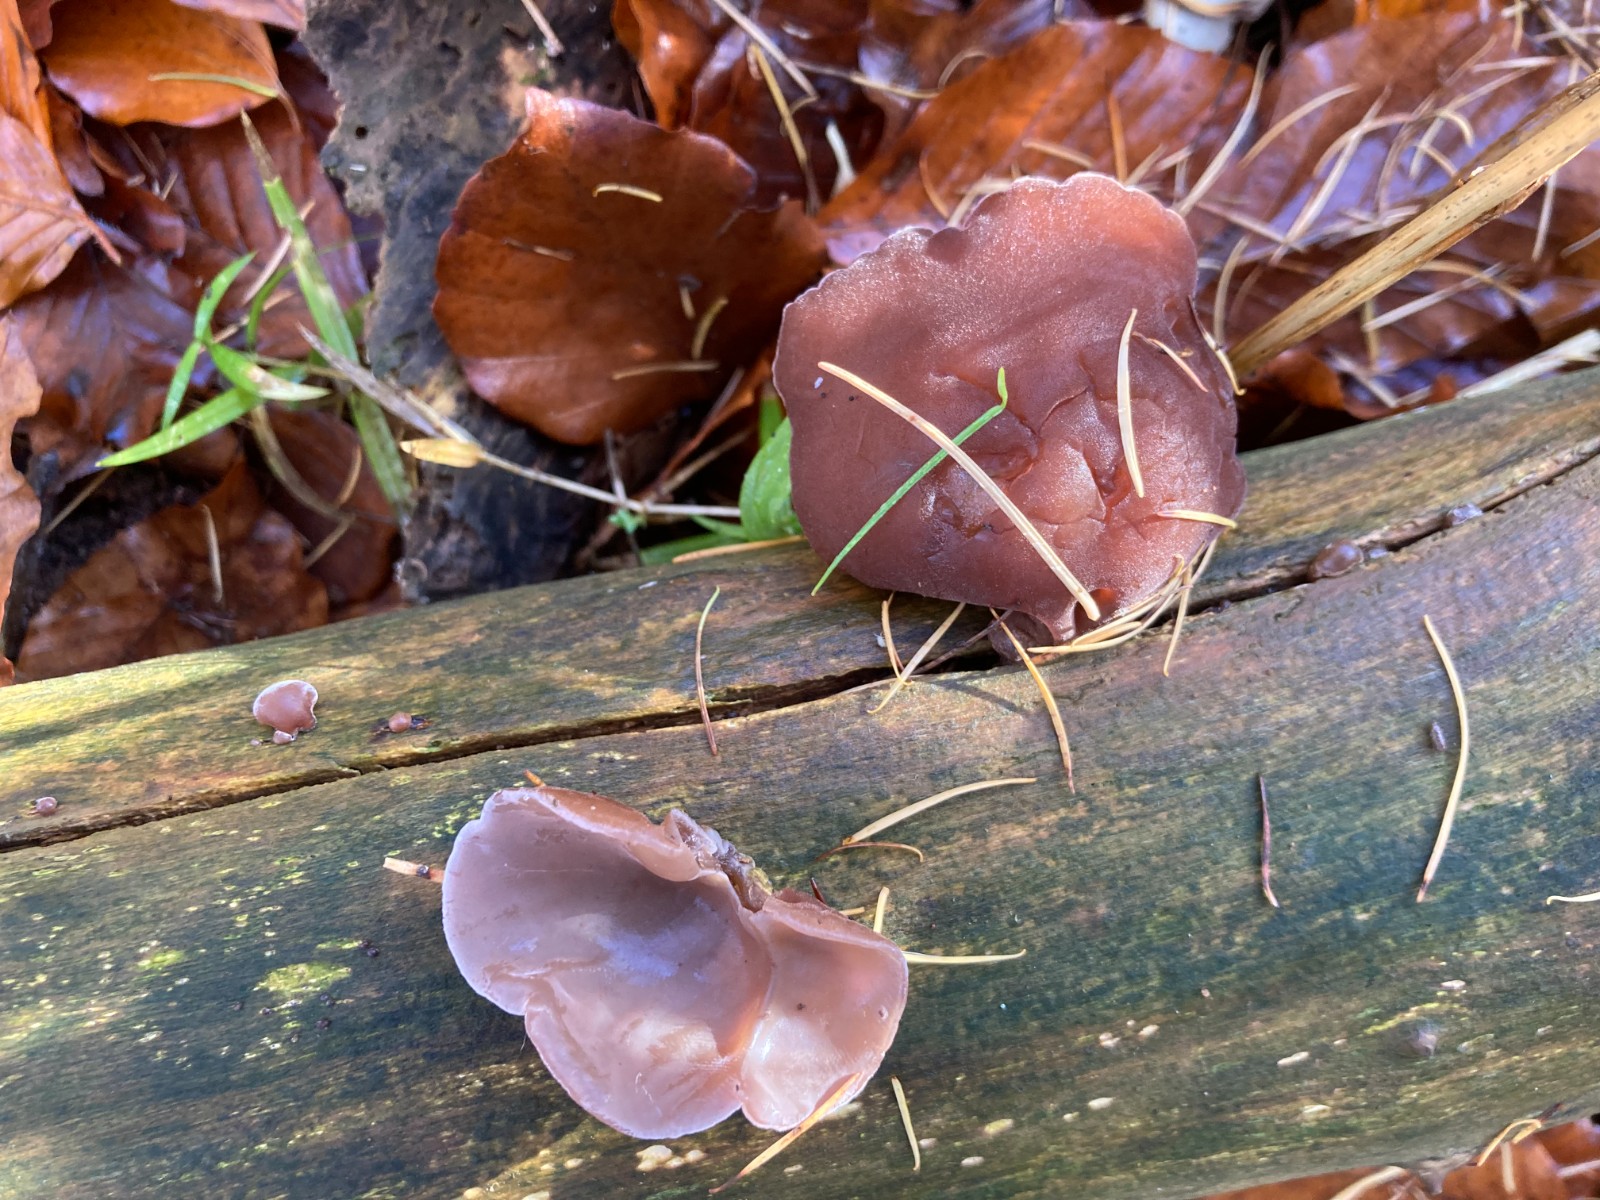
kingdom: Fungi
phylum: Basidiomycota
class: Agaricomycetes
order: Auriculariales
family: Auriculariaceae
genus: Auricularia
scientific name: Auricularia auricula-judae
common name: almindelig judasøre
